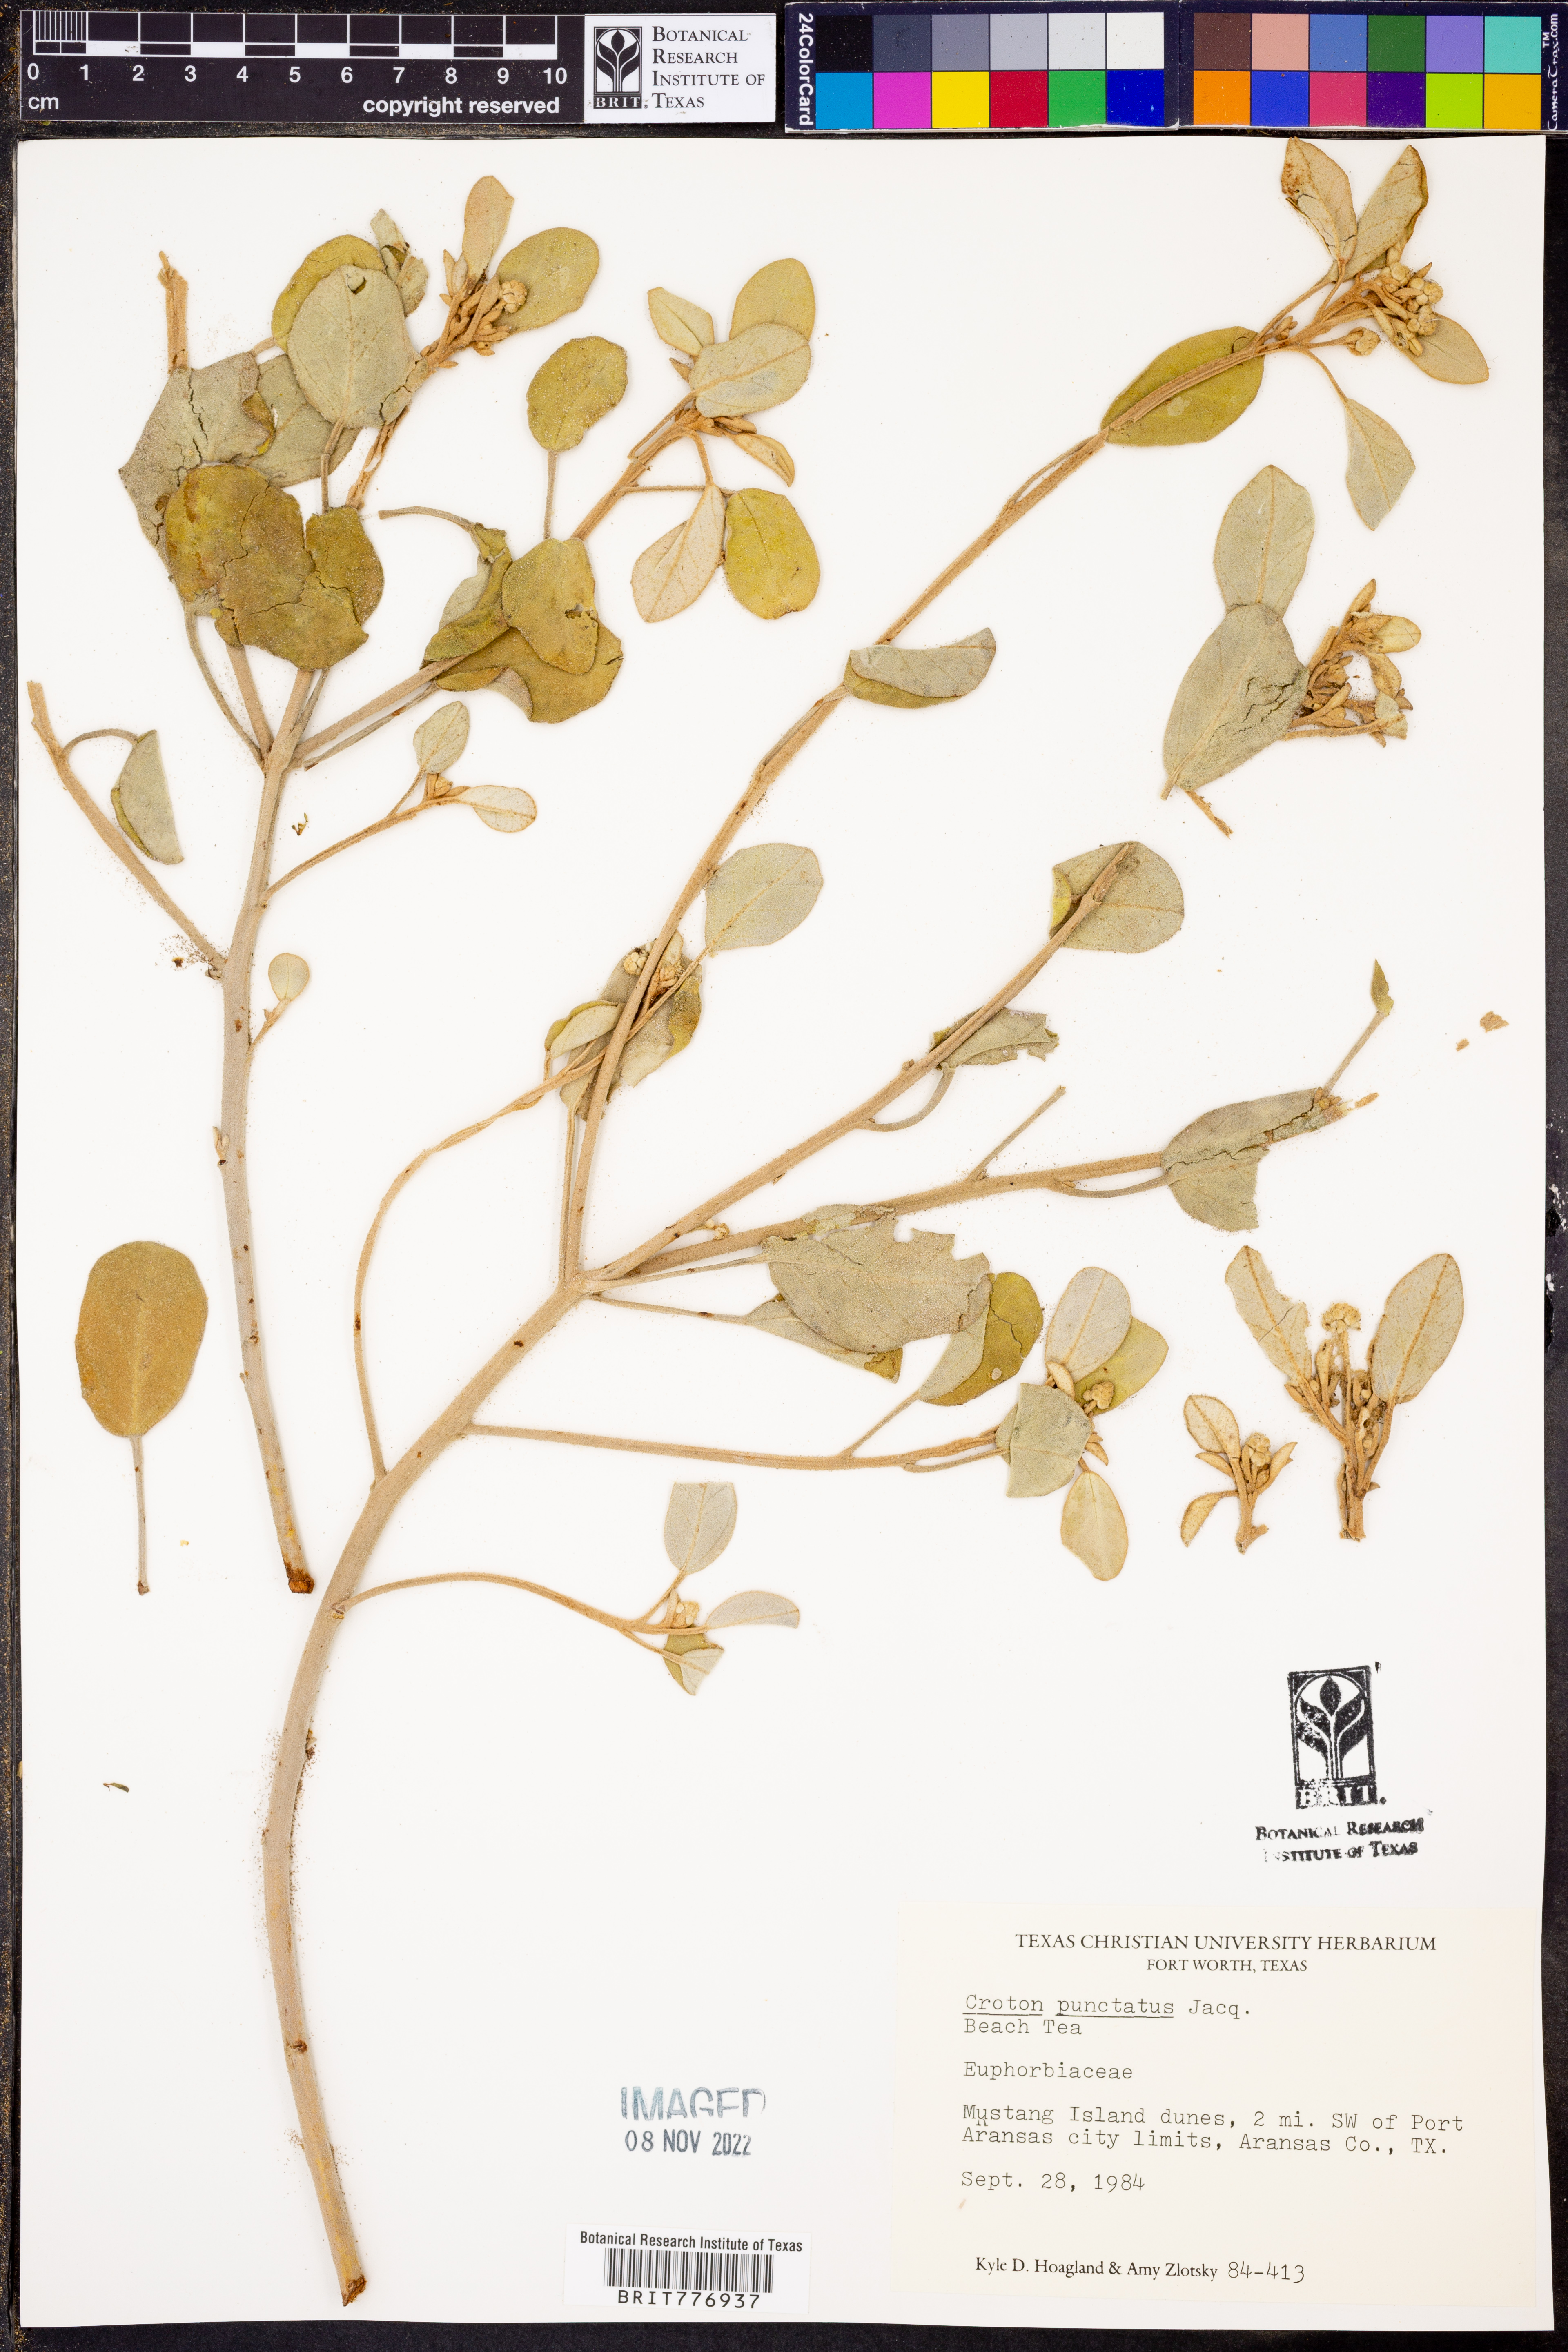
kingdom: Plantae
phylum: Tracheophyta
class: Magnoliopsida
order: Malpighiales
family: Euphorbiaceae
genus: Croton
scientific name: Croton punctatus
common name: Beach-tea
